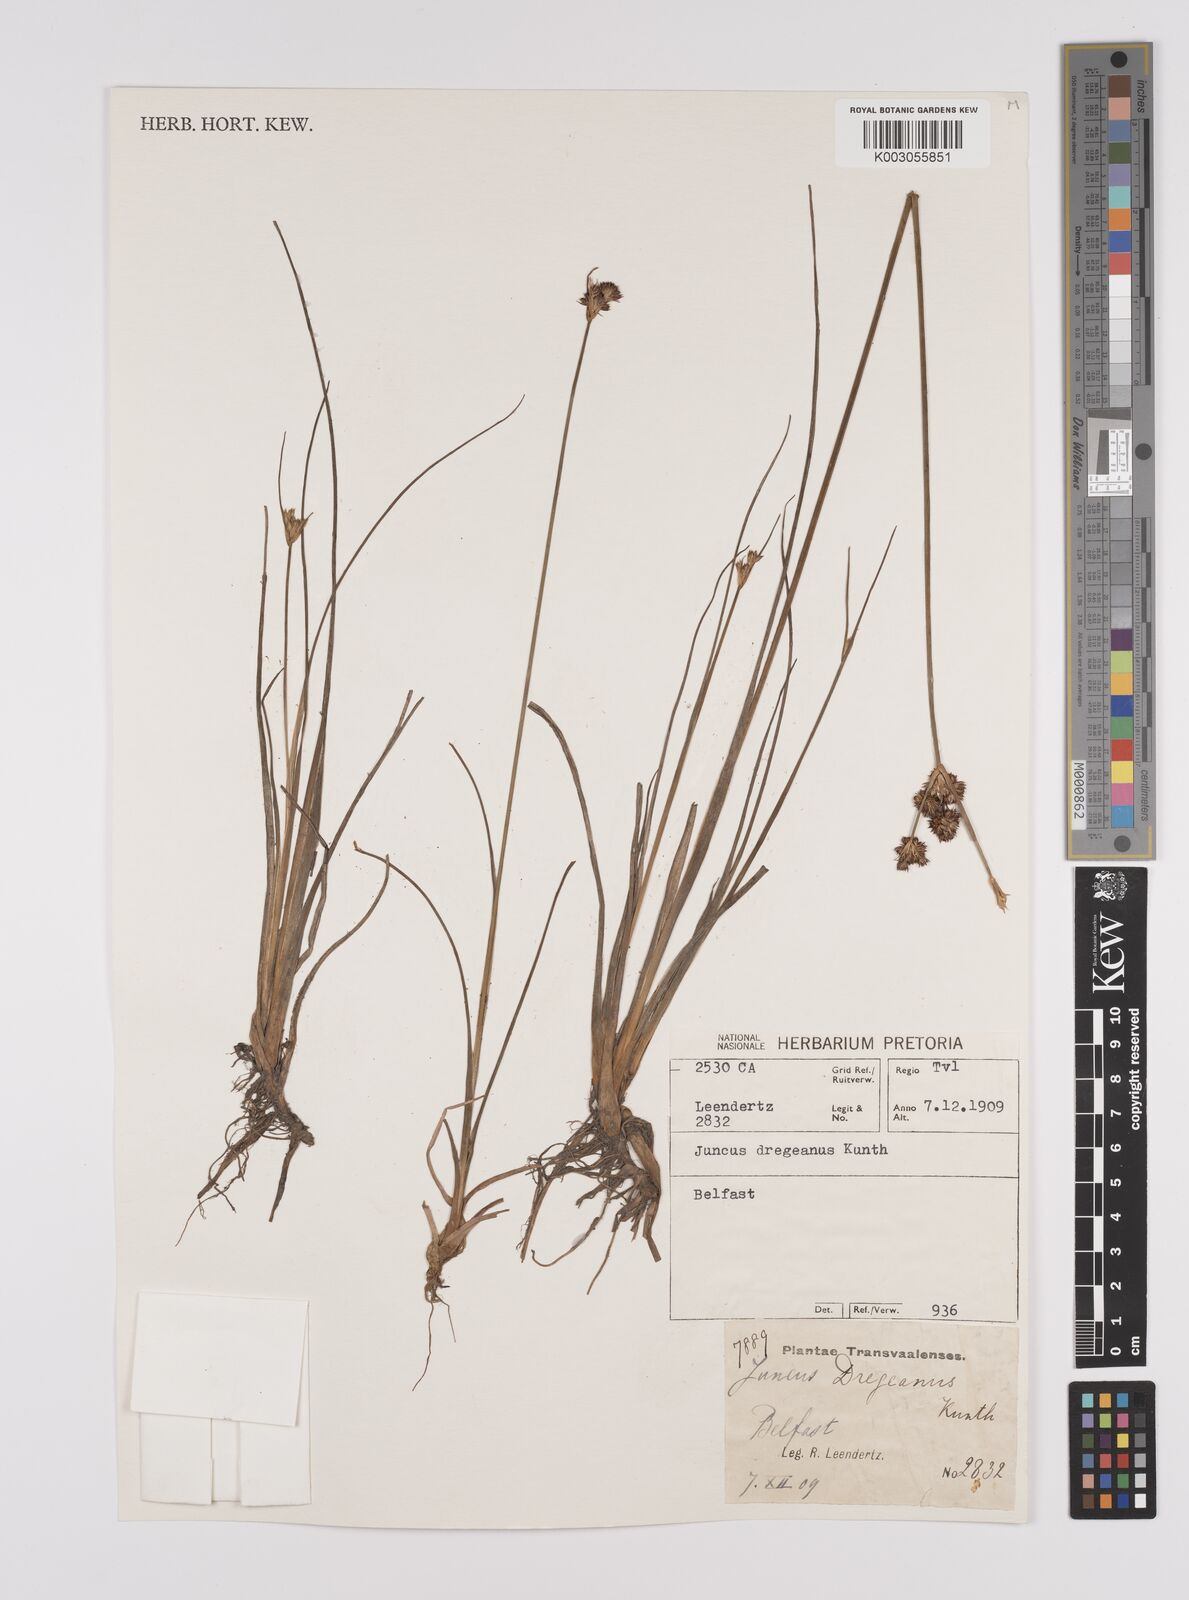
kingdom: Plantae
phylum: Tracheophyta
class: Liliopsida
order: Poales
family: Juncaceae
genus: Juncus
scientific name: Juncus dregeanus
